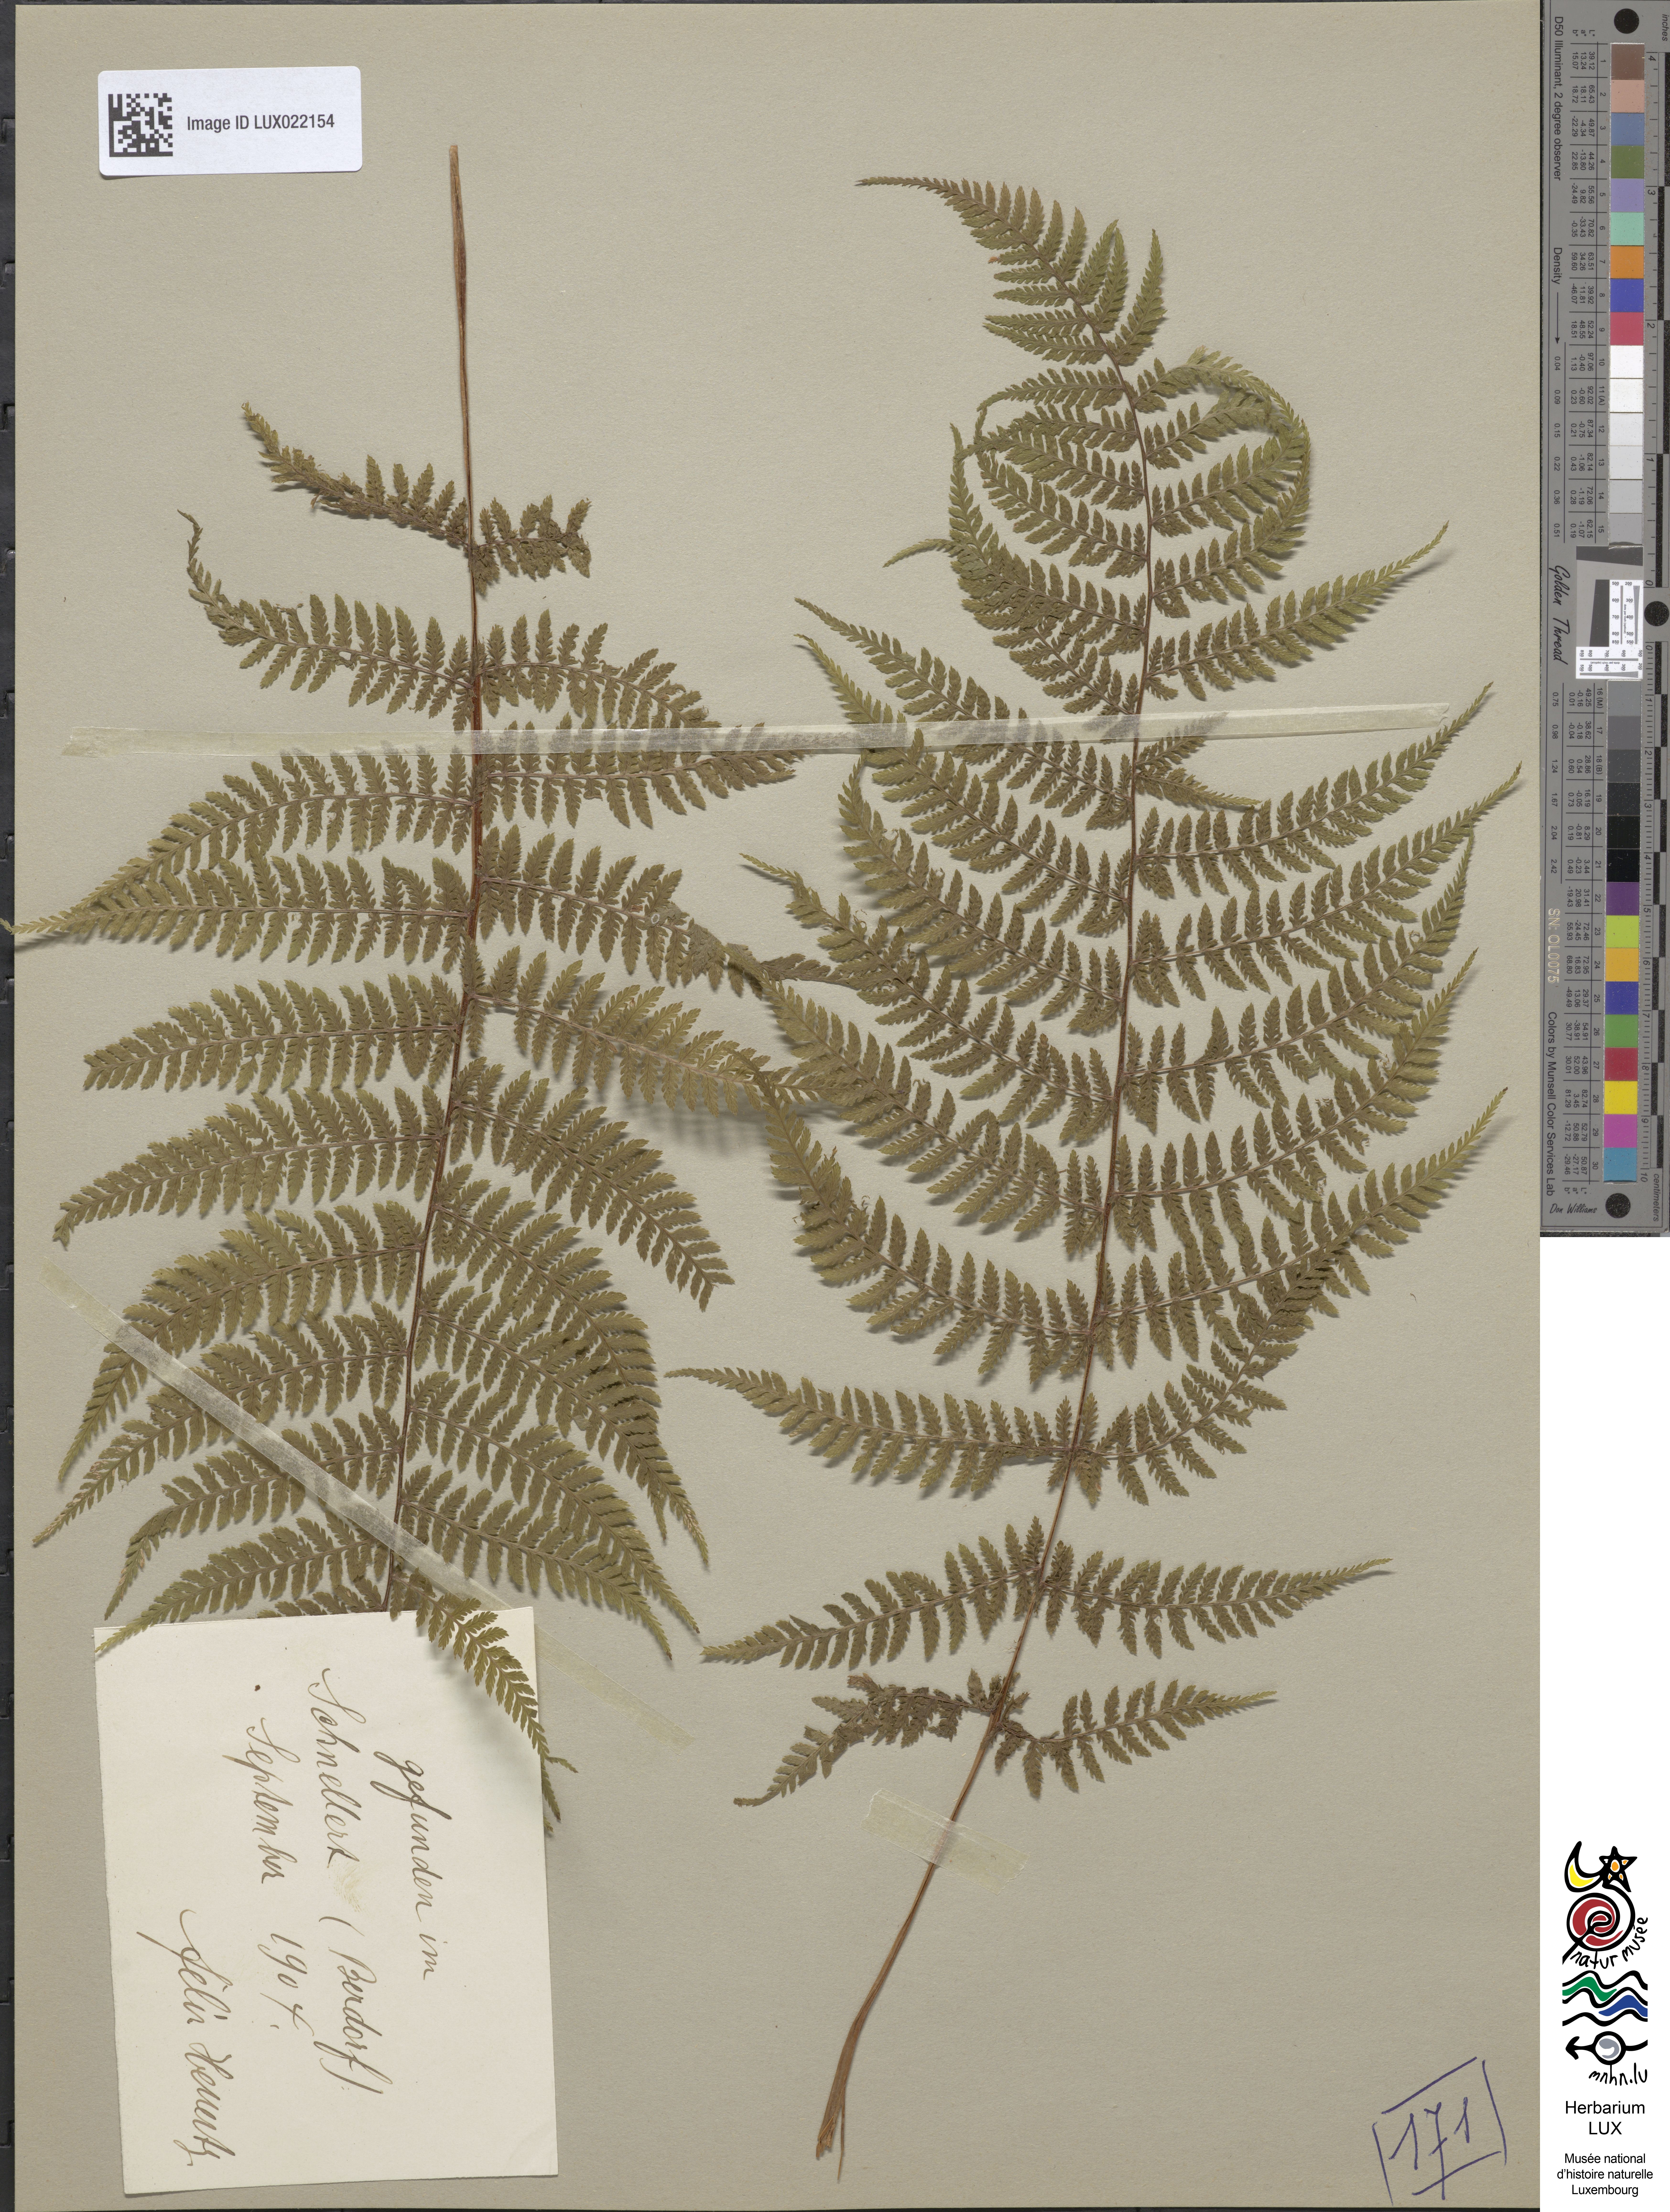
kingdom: Plantae
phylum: Tracheophyta
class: Polypodiopsida
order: Polypodiales
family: Dryopteridaceae
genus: Dryopteris
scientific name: Dryopteris dilatata
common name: Broad buckler-fern
